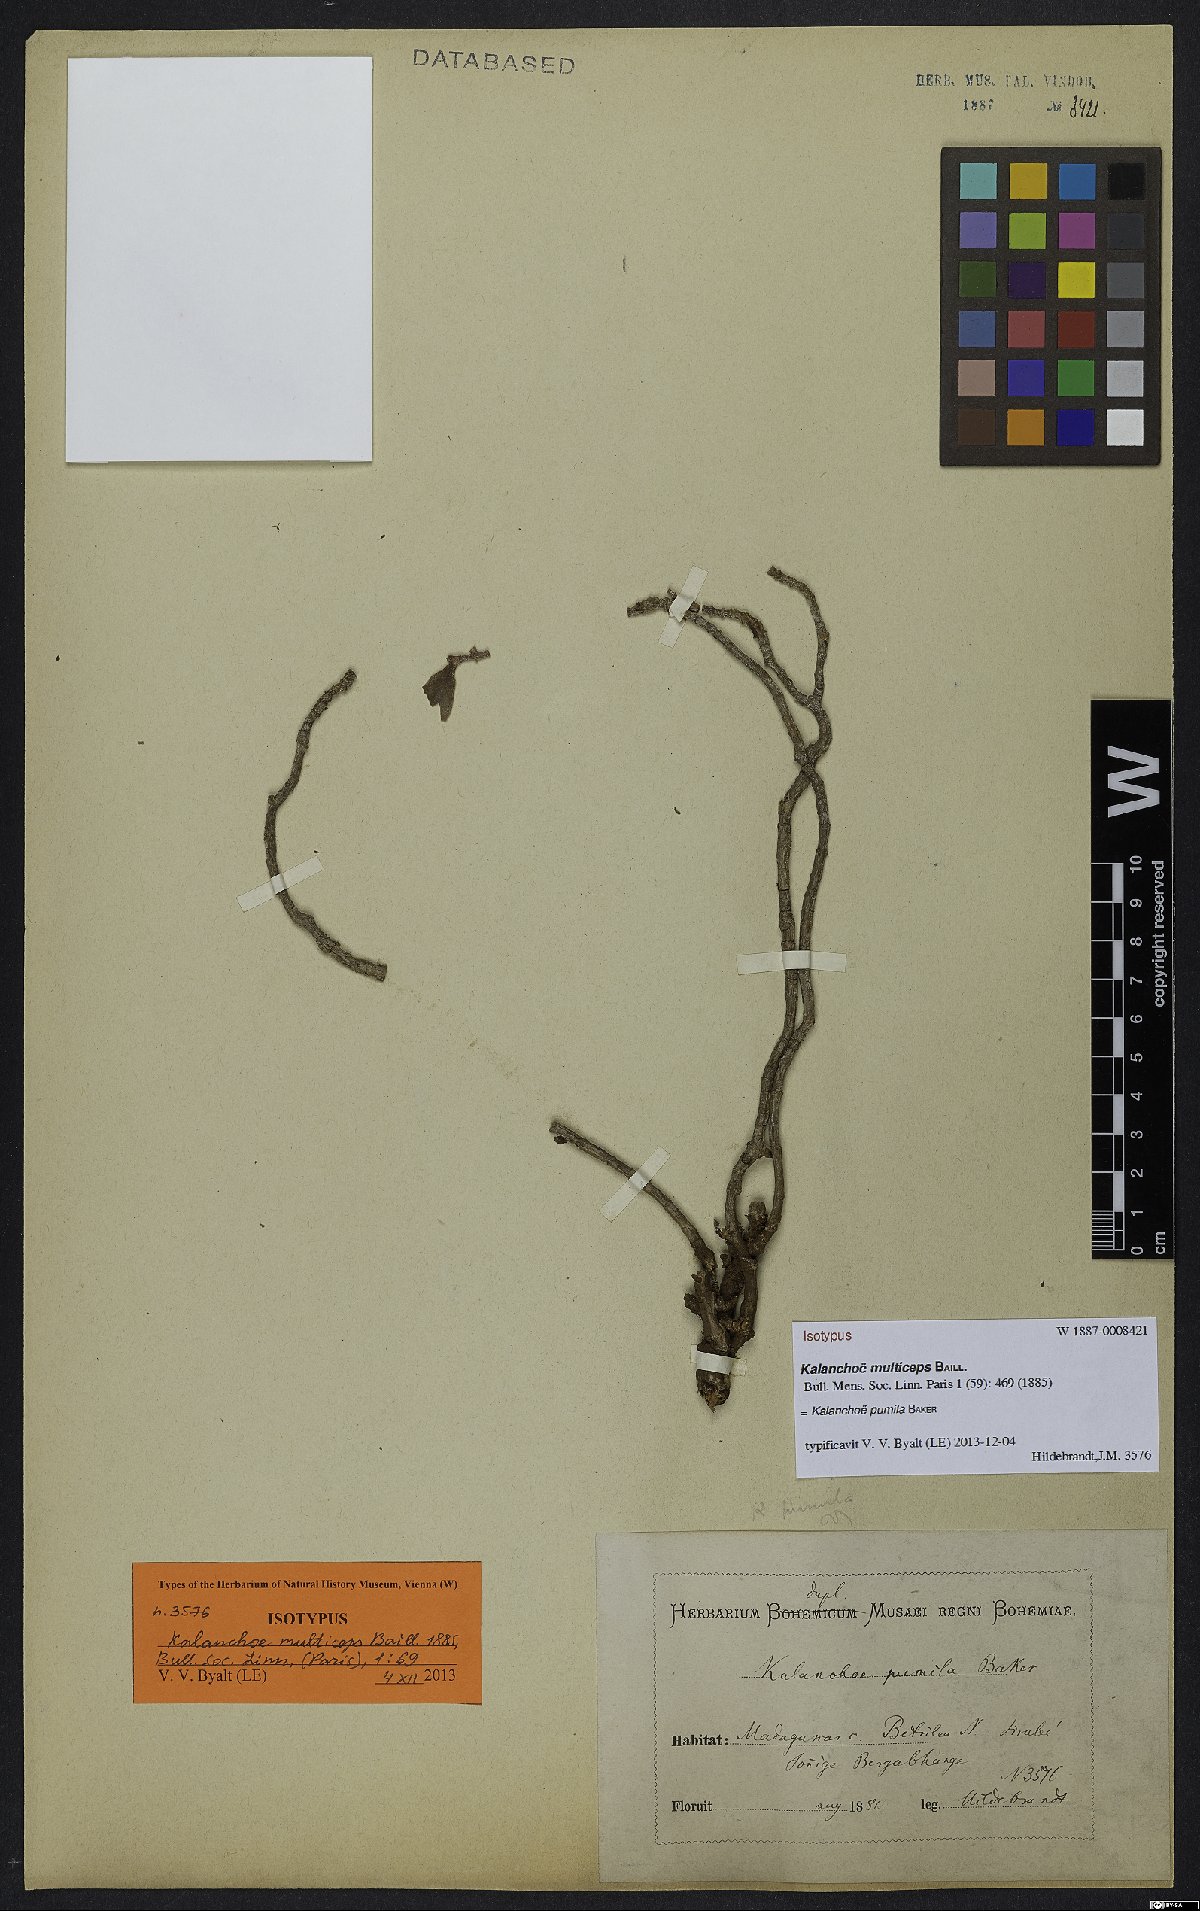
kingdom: Plantae
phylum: Tracheophyta
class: Magnoliopsida
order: Saxifragales
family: Crassulaceae
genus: Kalanchoe
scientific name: Kalanchoe pumila
